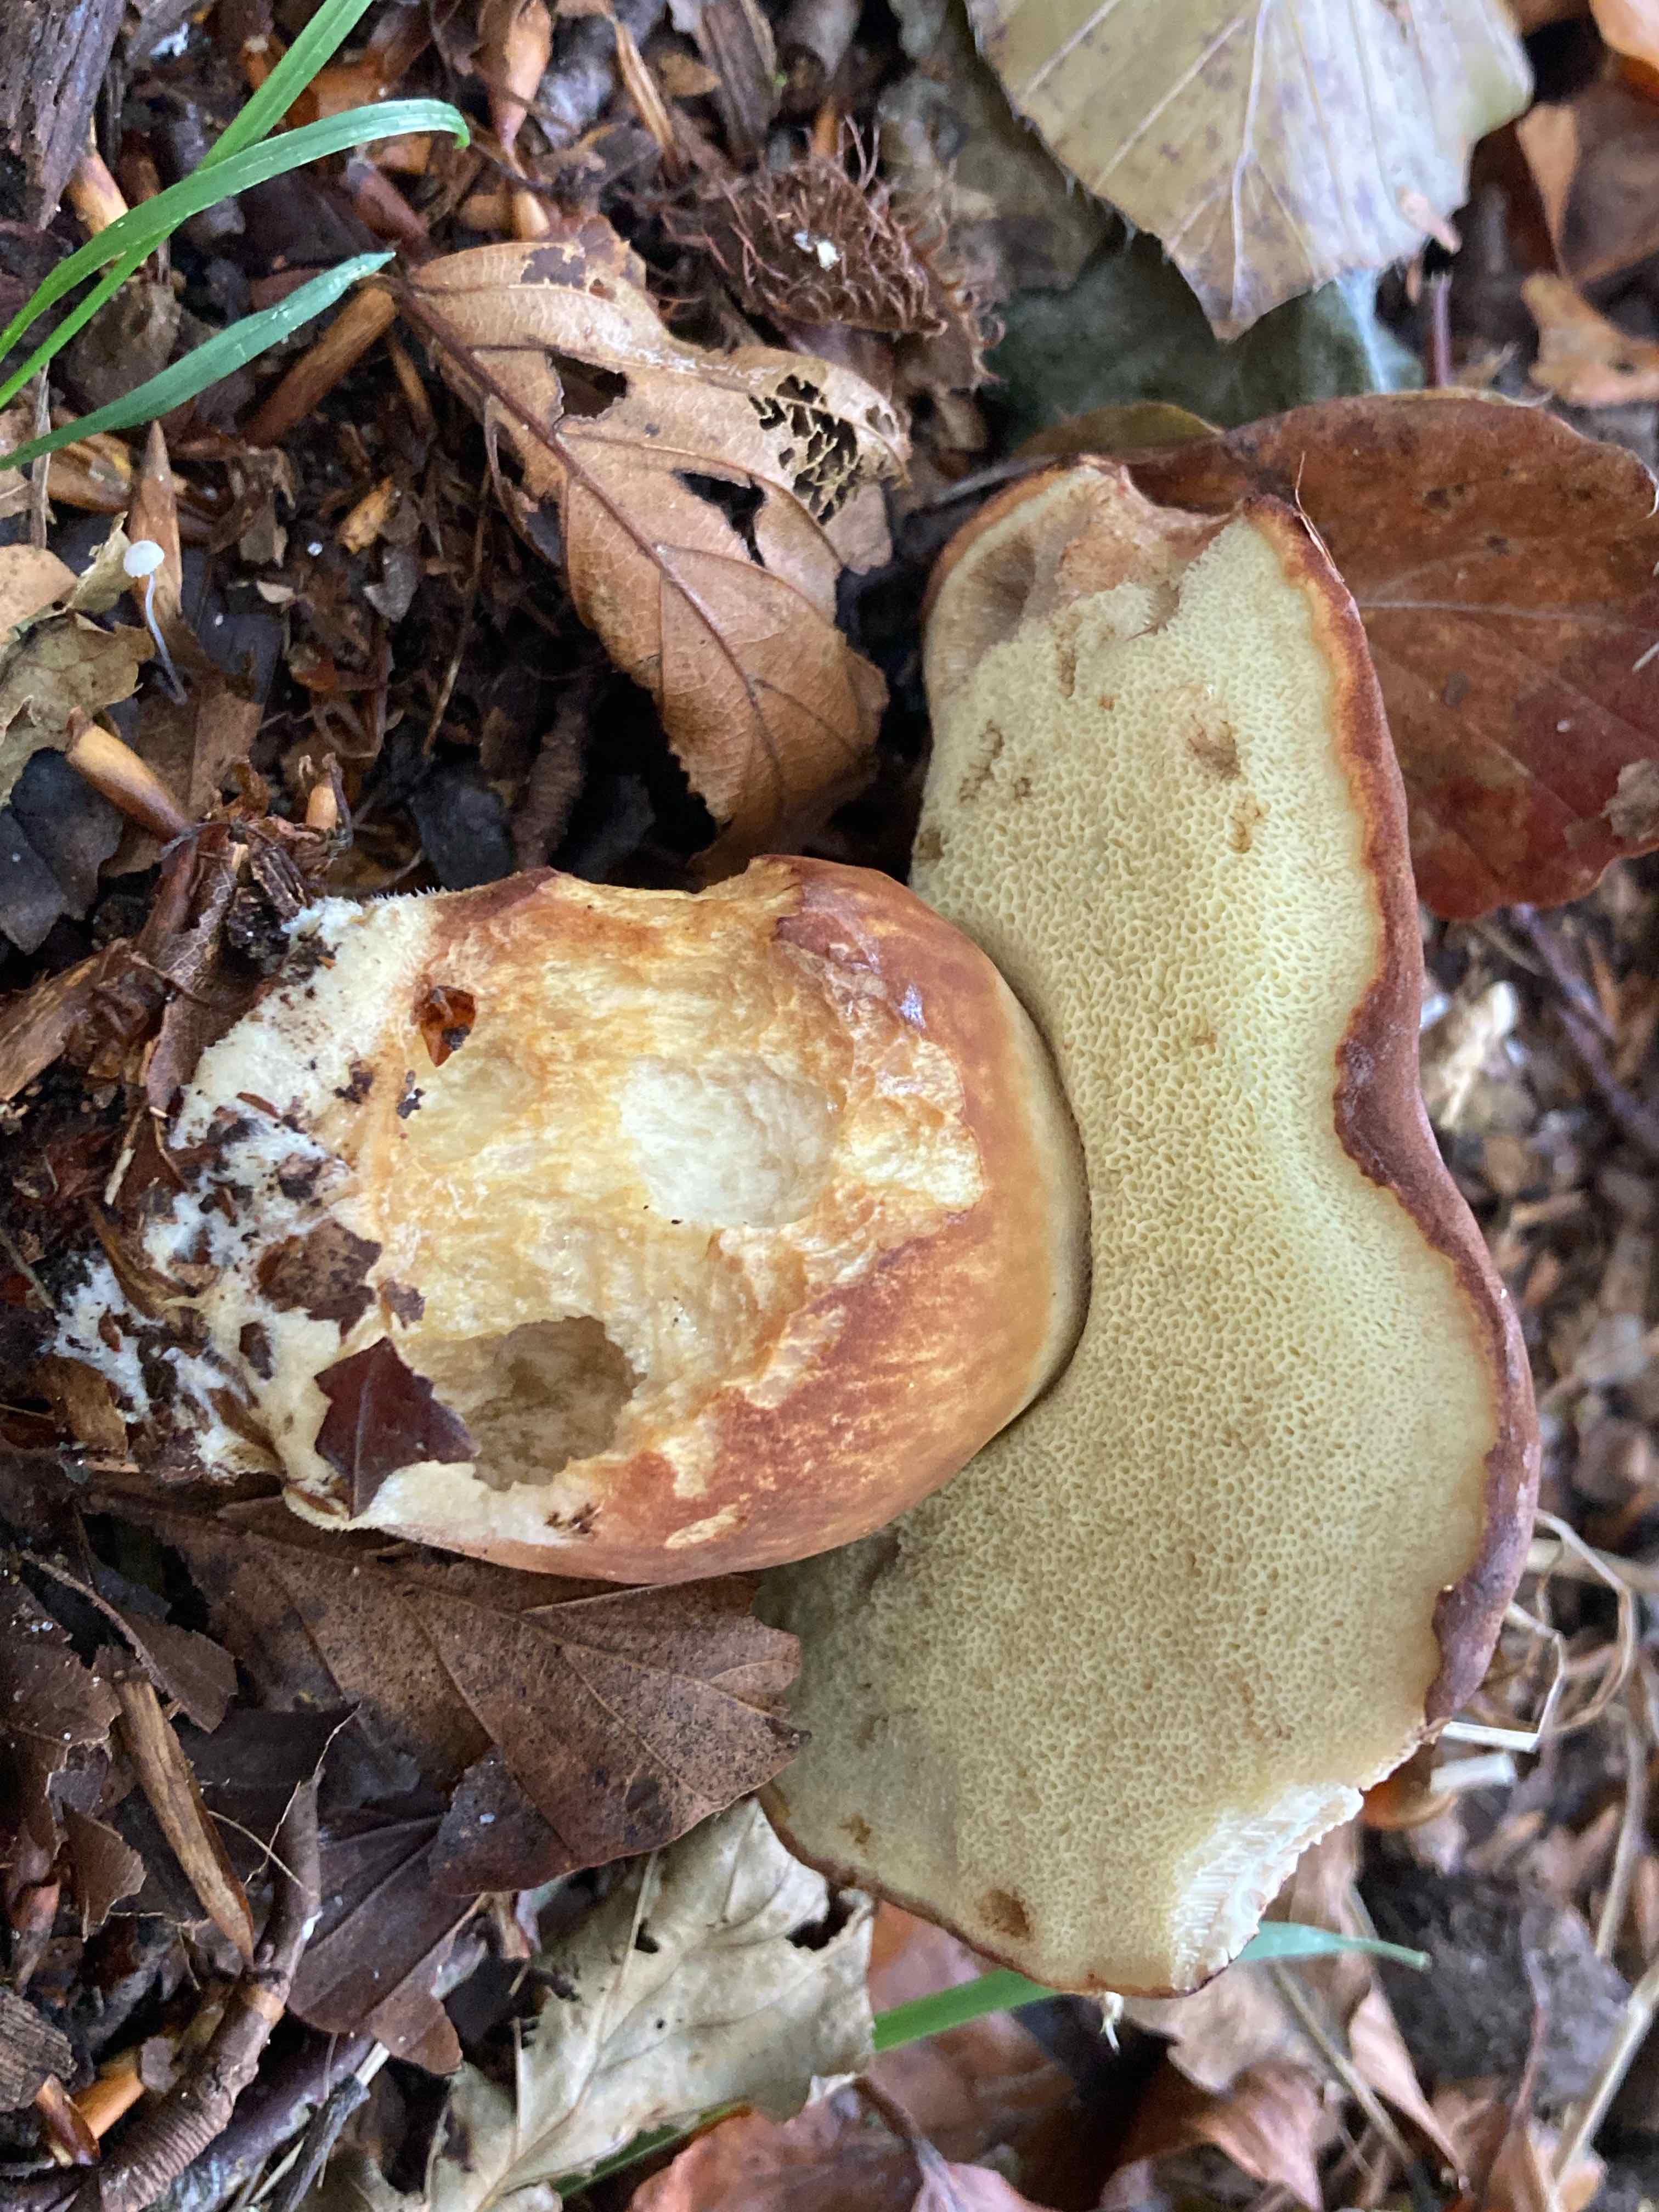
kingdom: Fungi
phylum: Basidiomycota
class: Agaricomycetes
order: Boletales
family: Boletaceae
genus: Imleria
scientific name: Imleria badia
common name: brunstokket rørhat
